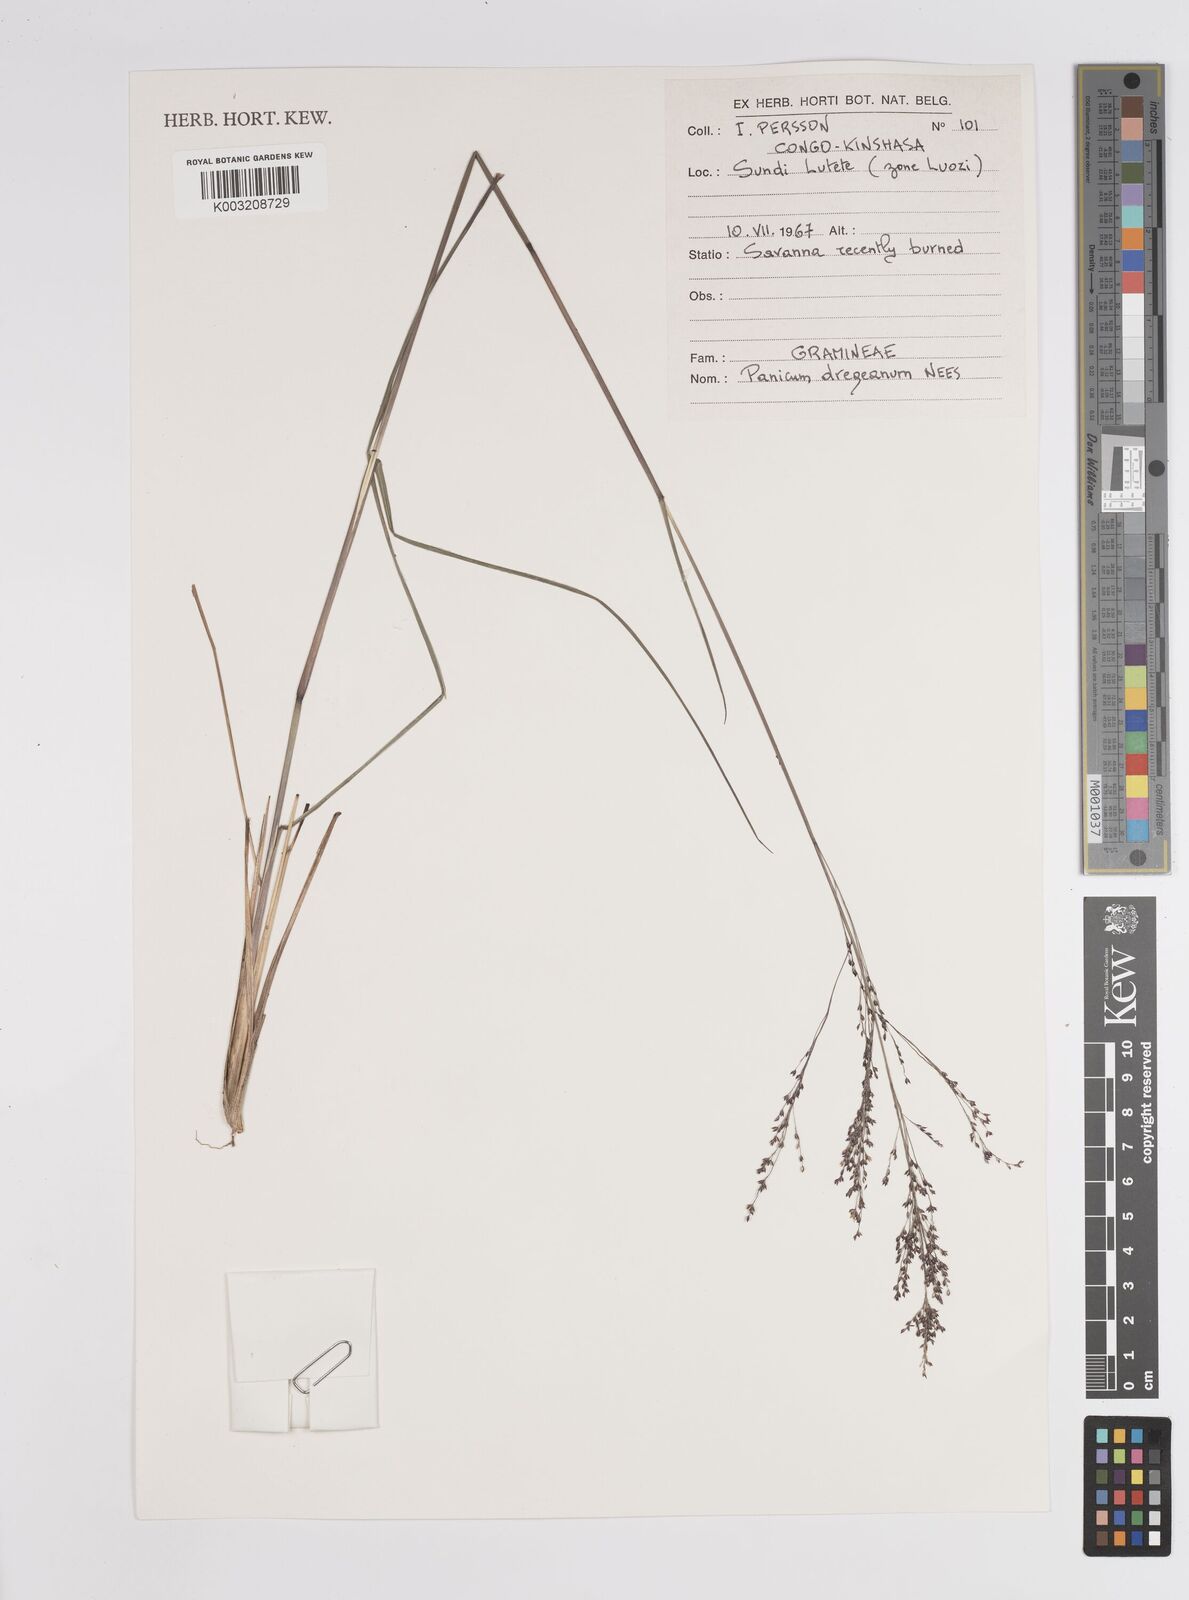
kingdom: Plantae
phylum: Tracheophyta
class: Liliopsida
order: Poales
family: Poaceae
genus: Panicum
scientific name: Panicum dregeanum
